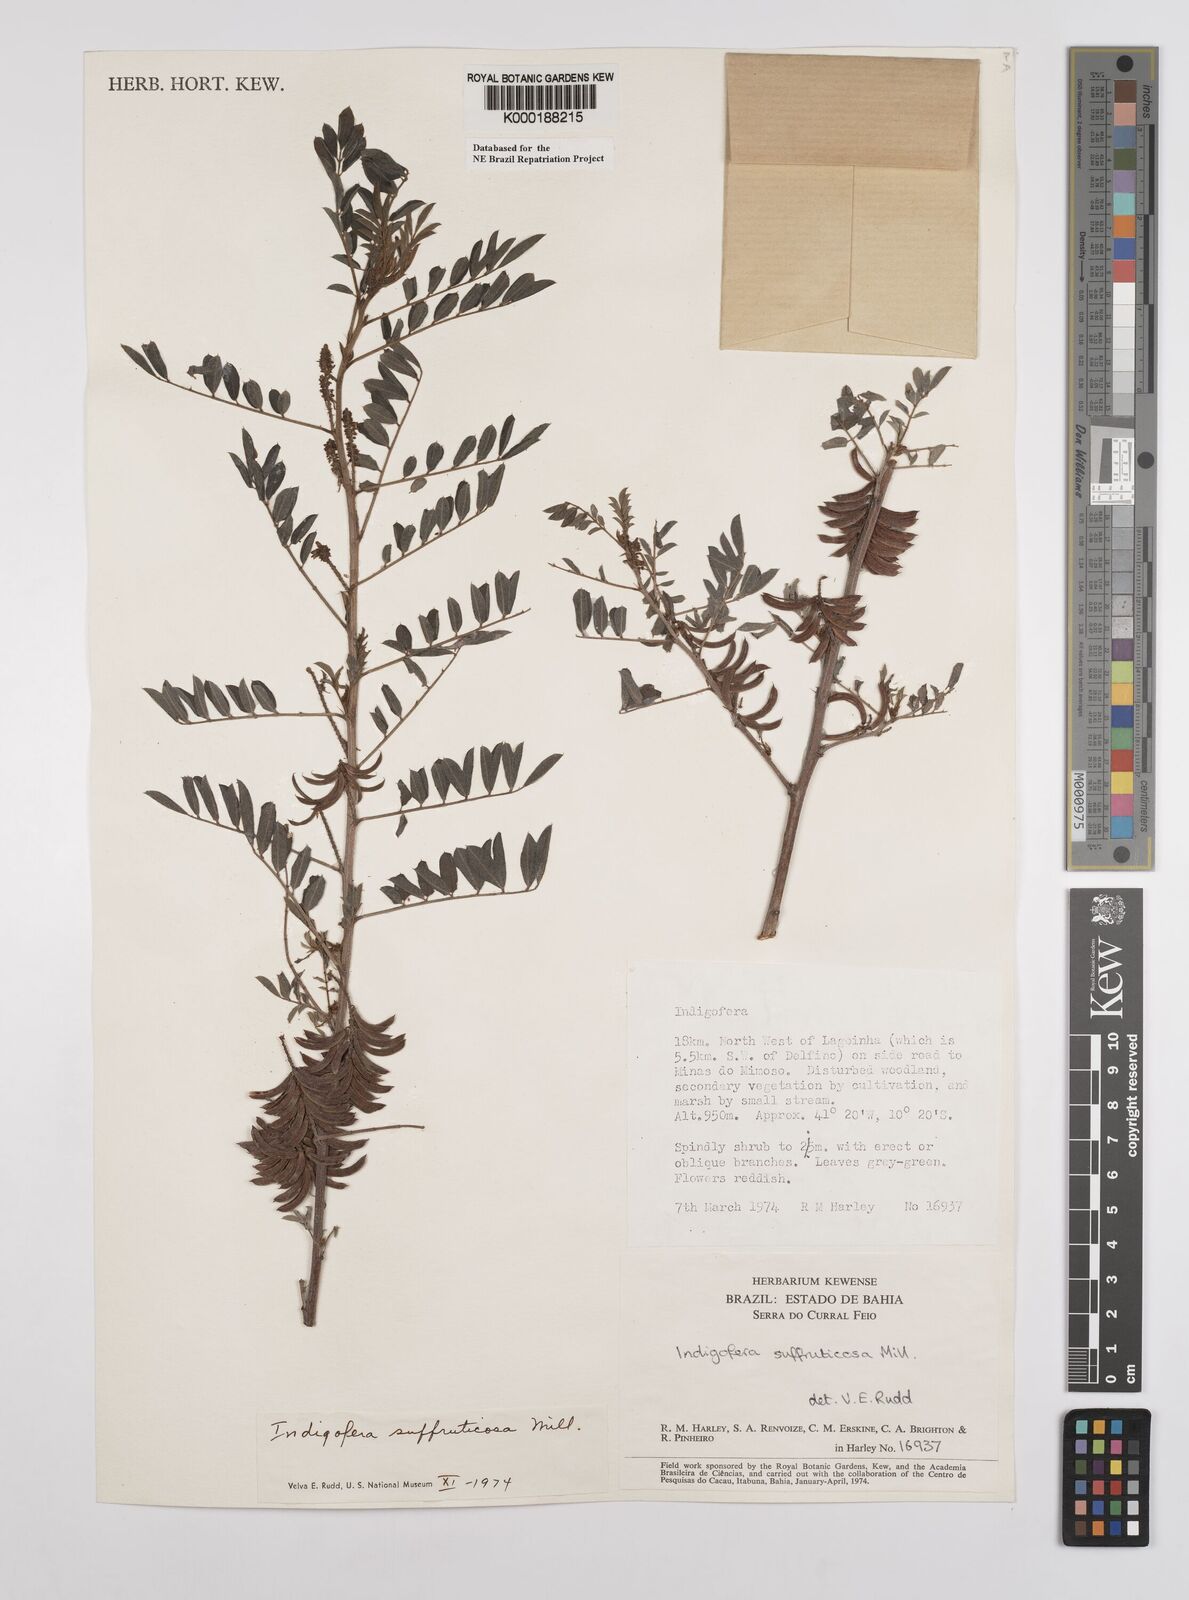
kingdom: Plantae
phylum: Tracheophyta
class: Magnoliopsida
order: Fabales
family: Fabaceae
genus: Indigofera
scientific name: Indigofera suffruticosa
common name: Anil de pasto
